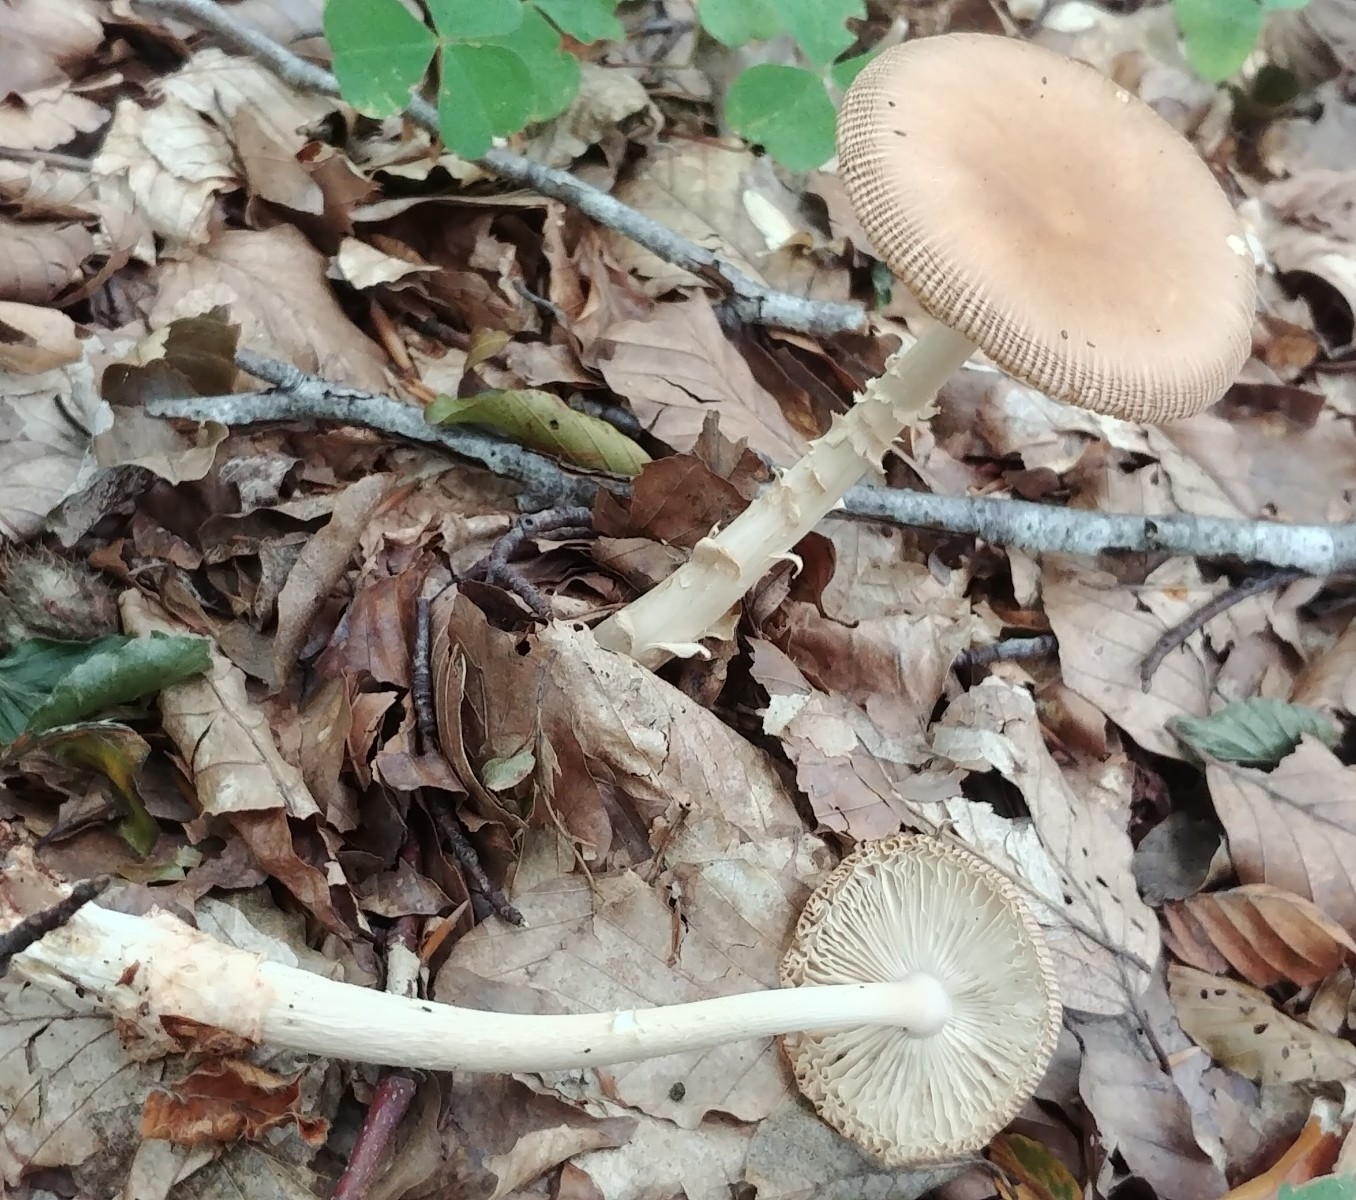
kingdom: Fungi
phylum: Basidiomycota
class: Agaricomycetes
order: Agaricales
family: Amanitaceae
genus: Amanita
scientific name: Amanita fulva
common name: brun kam-fluesvamp
